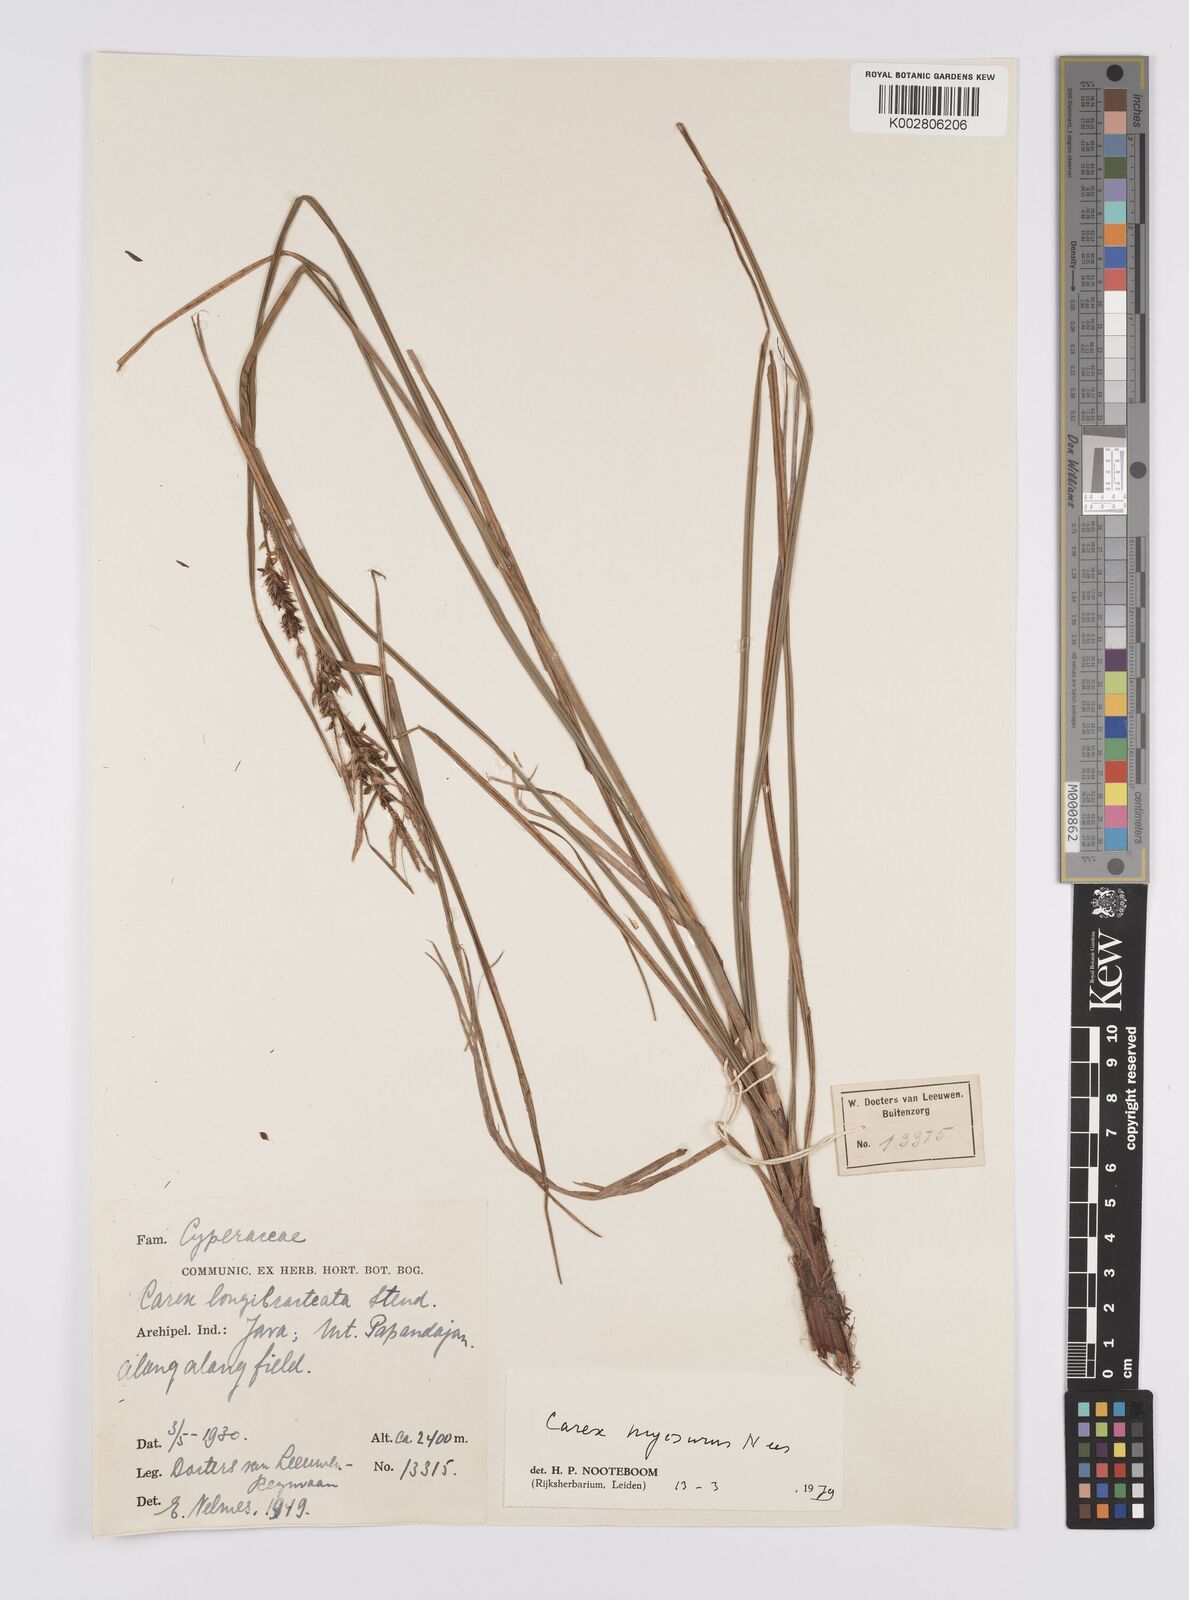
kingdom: Plantae
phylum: Tracheophyta
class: Liliopsida
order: Poales
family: Cyperaceae
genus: Carex
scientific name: Carex myosurus
